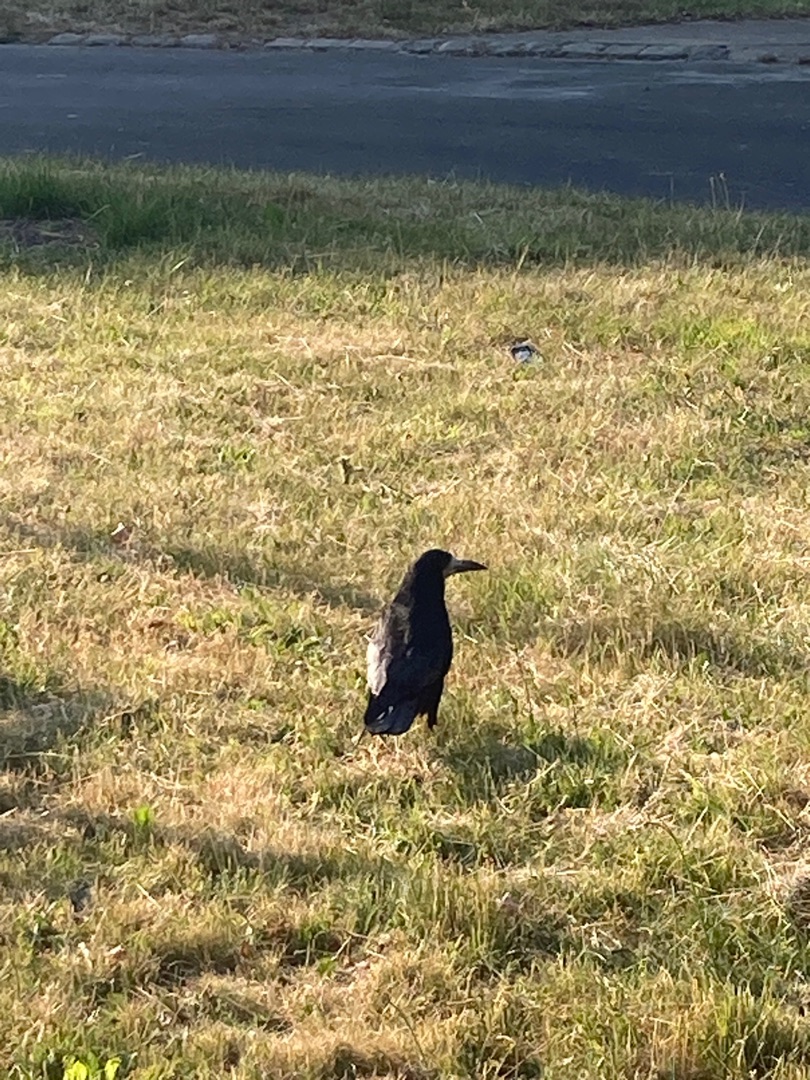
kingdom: Animalia
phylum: Chordata
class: Aves
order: Passeriformes
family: Corvidae
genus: Corvus
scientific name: Corvus frugilegus
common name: Råge
